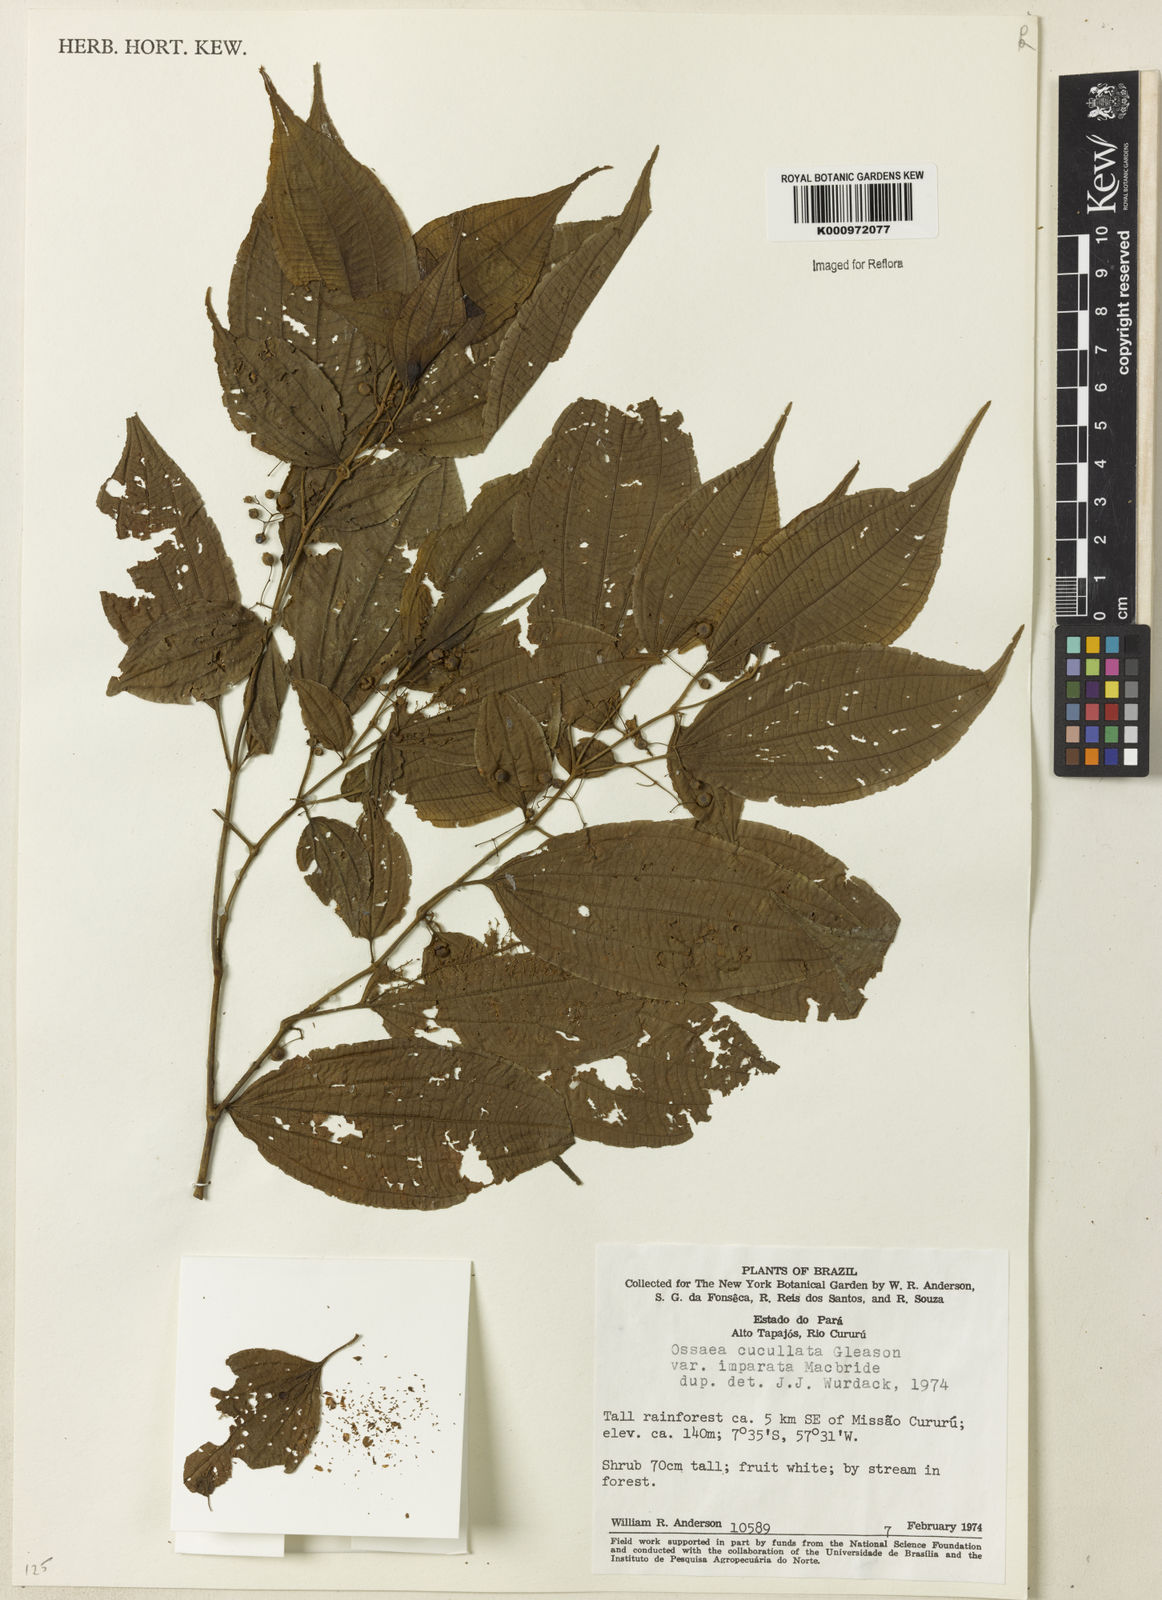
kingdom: Plantae
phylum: Tracheophyta
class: Magnoliopsida
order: Myrtales
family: Melastomataceae
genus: Miconia
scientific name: Miconia cucullata
